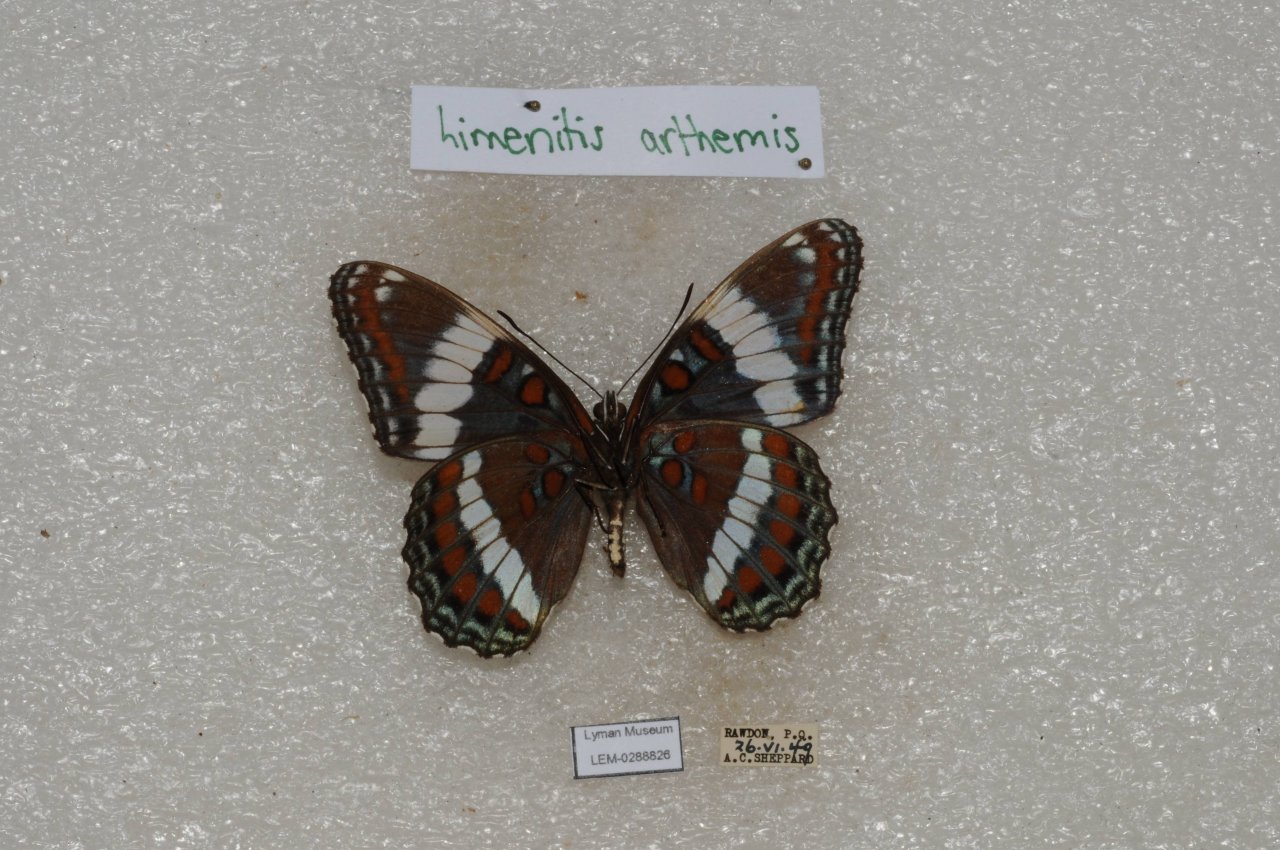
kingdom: Animalia
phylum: Arthropoda
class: Insecta
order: Lepidoptera
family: Nymphalidae
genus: Limenitis
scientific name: Limenitis arthemis
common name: Red-spotted Admiral
